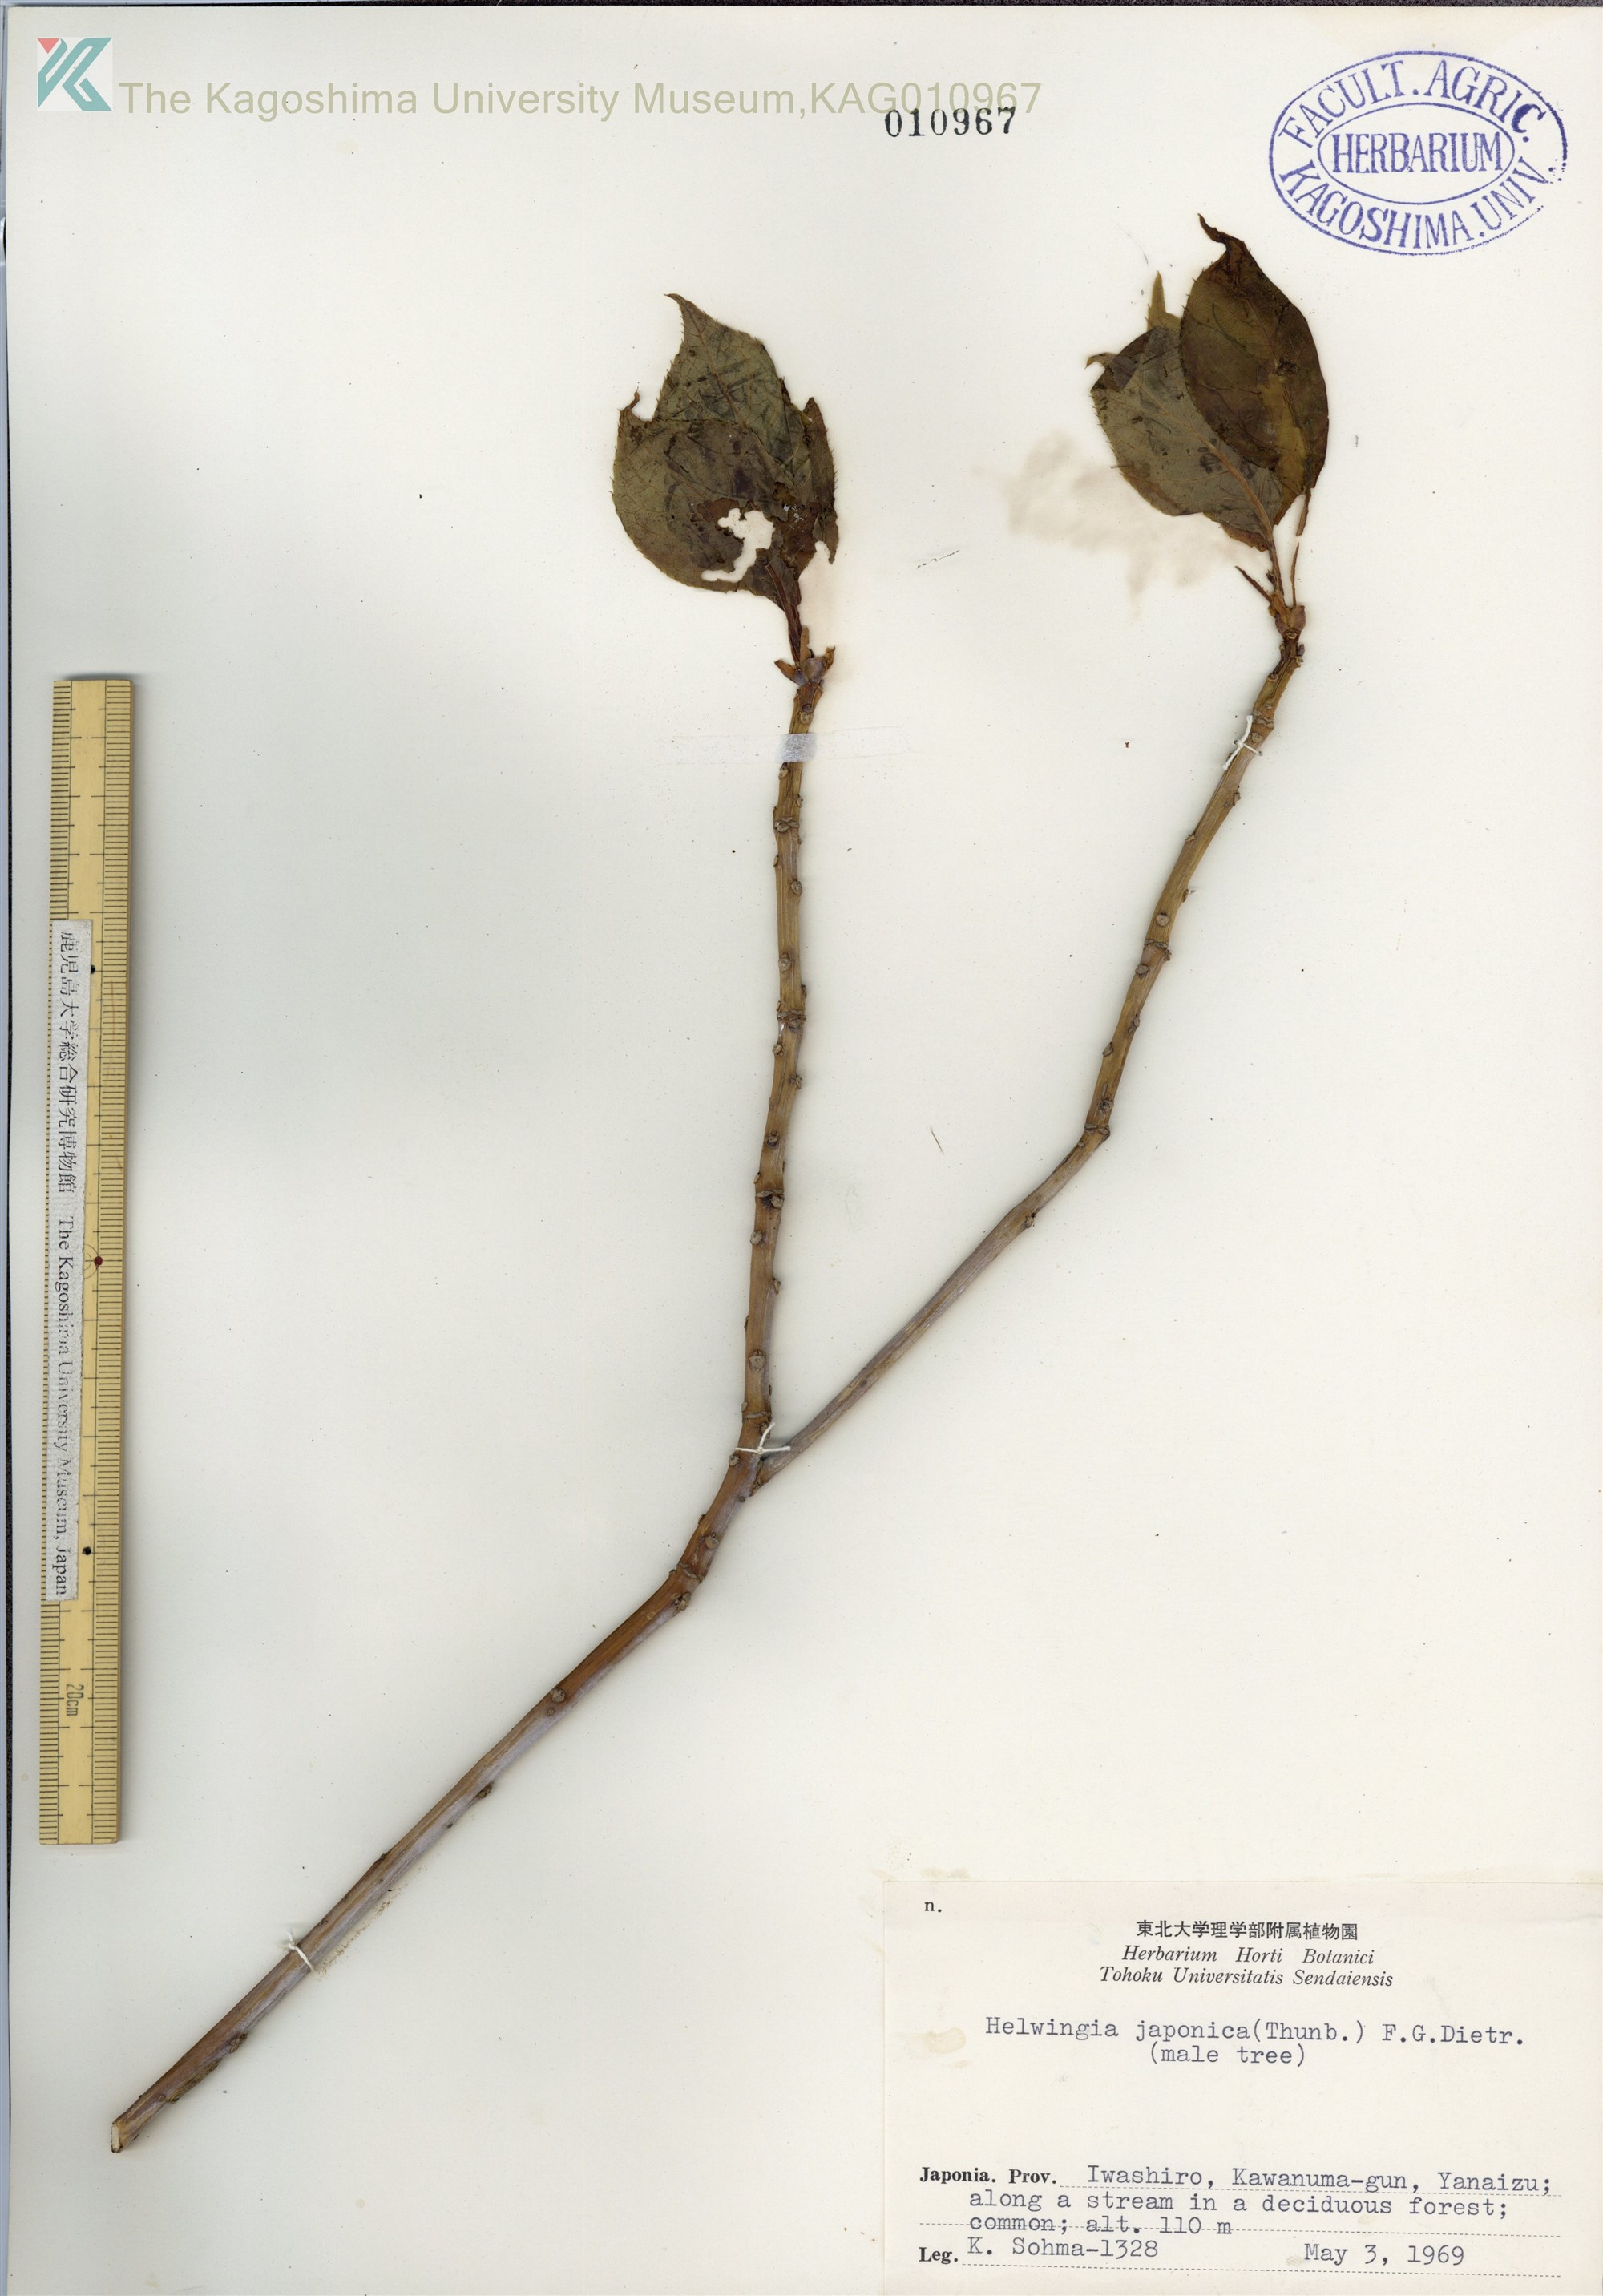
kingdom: Plantae
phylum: Tracheophyta
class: Magnoliopsida
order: Aquifoliales
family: Helwingiaceae
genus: Helwingia
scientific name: Helwingia japonica
